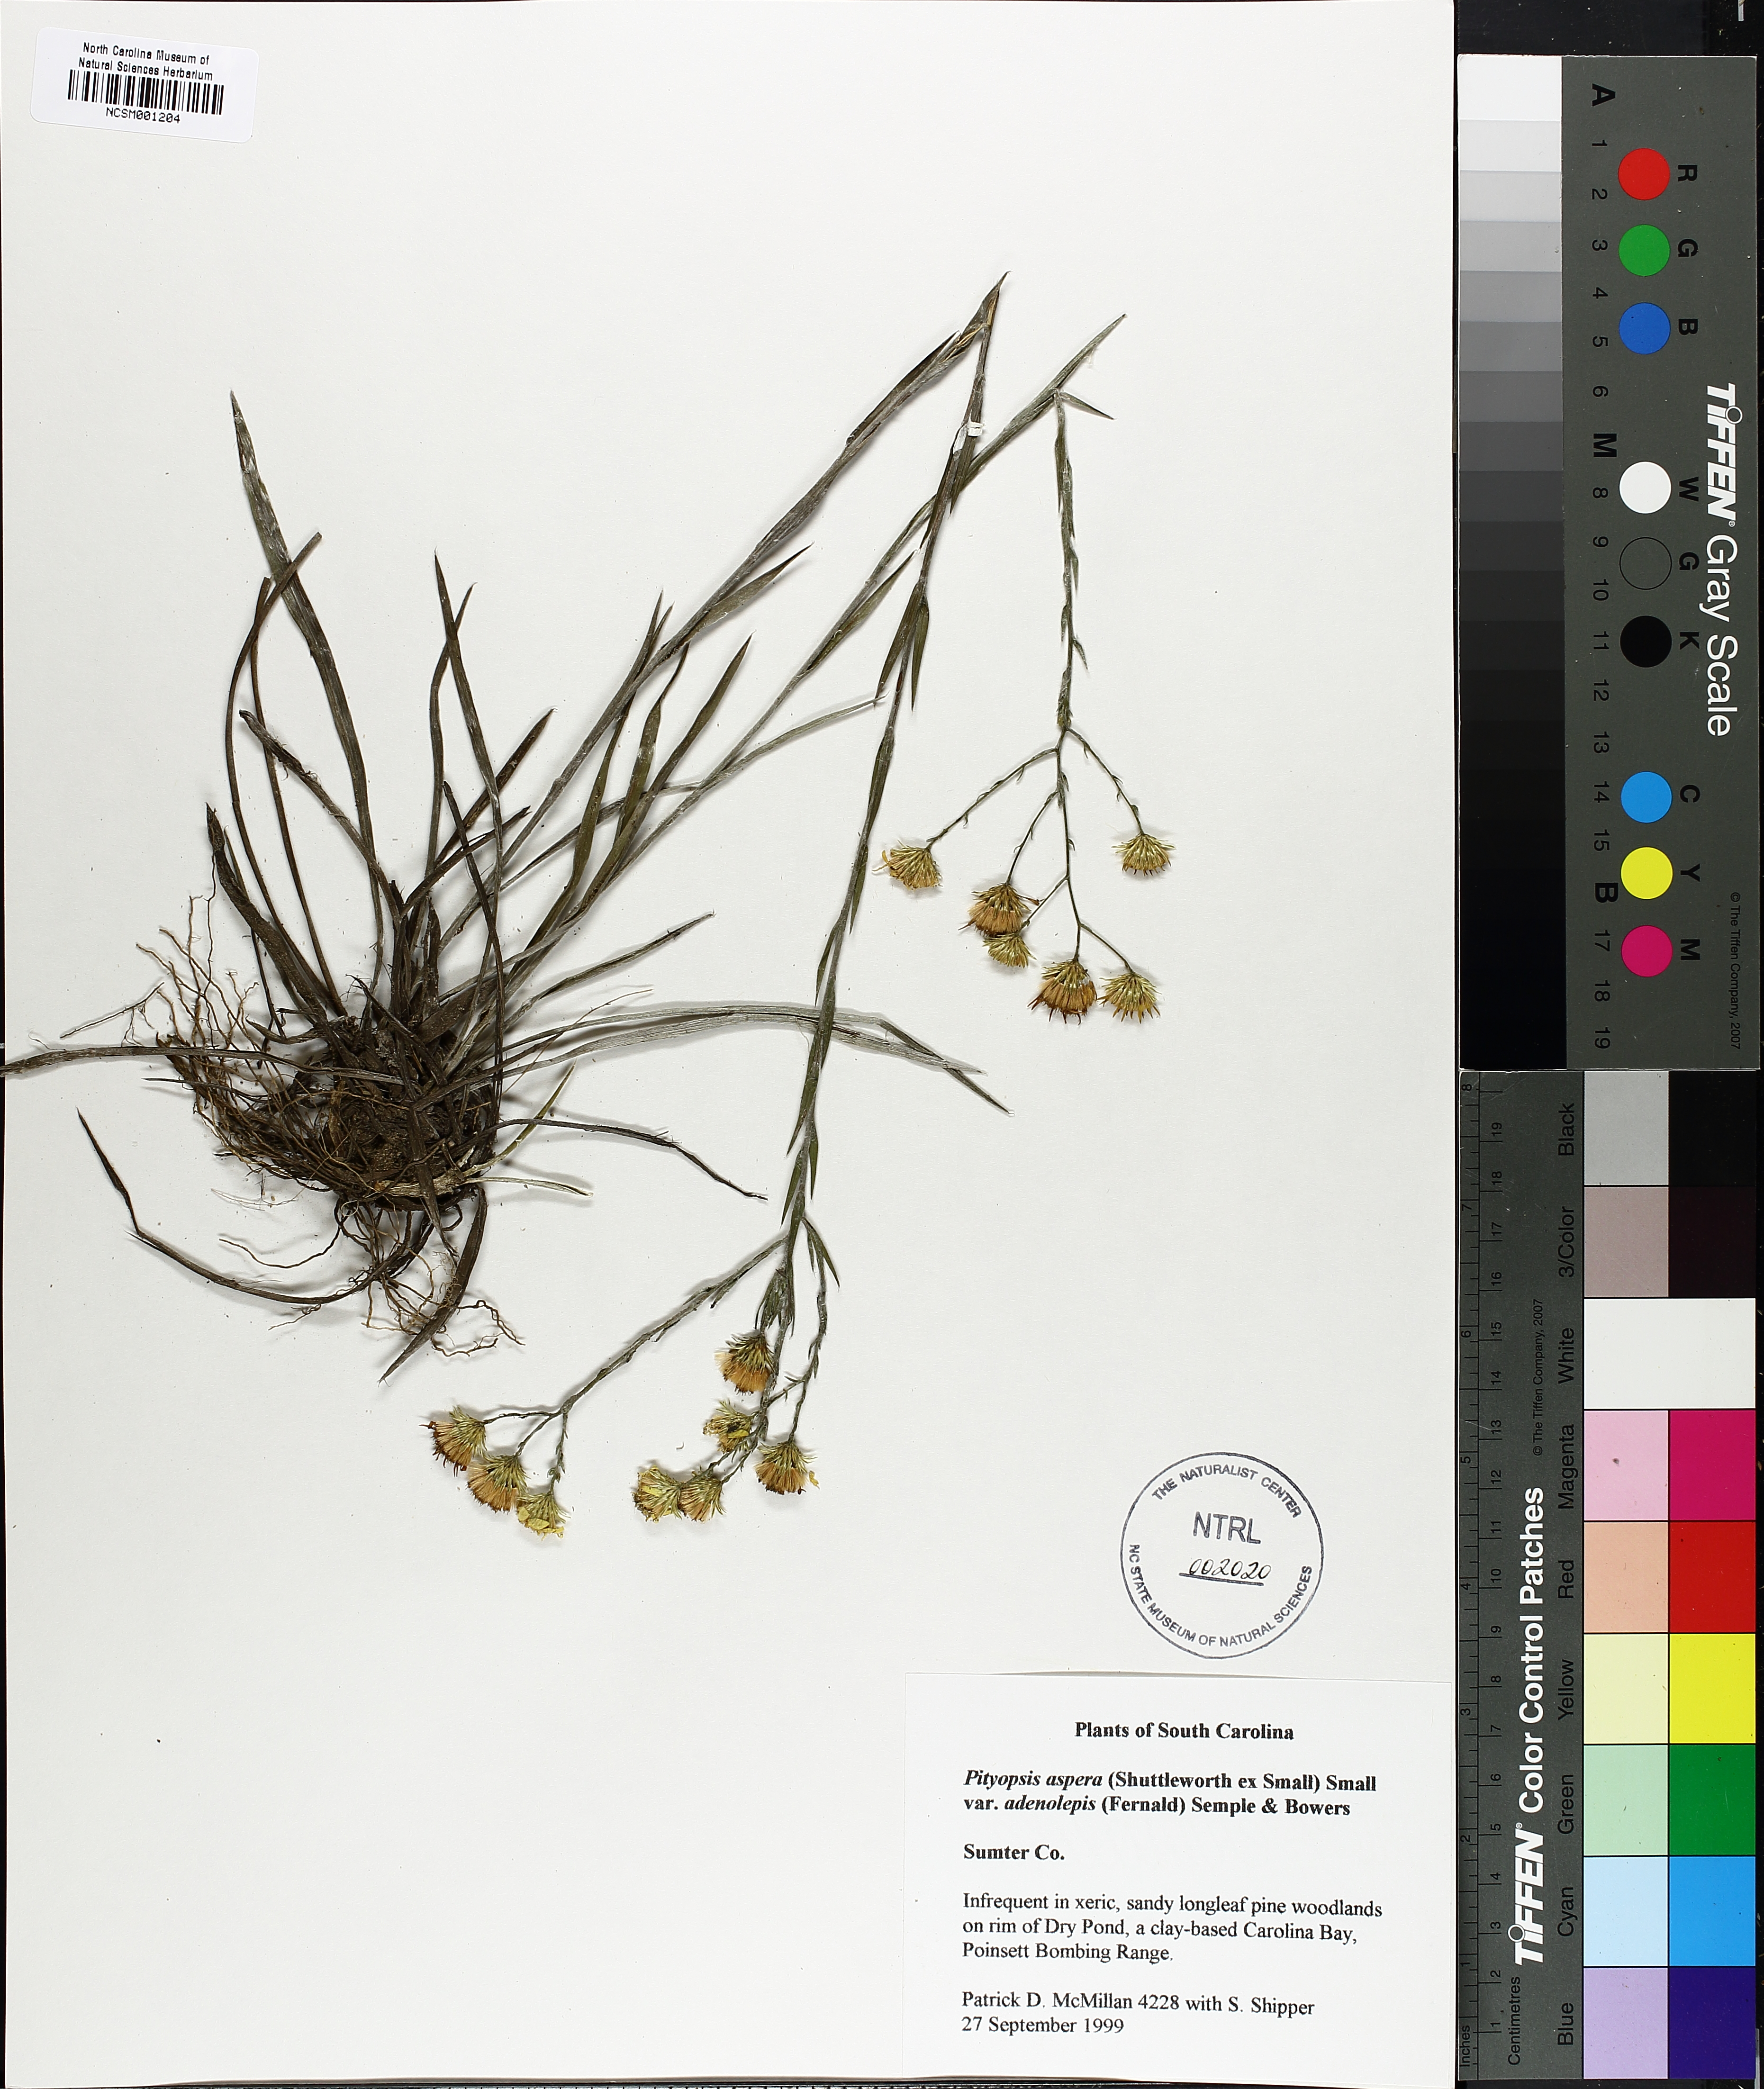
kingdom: Plantae
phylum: Tracheophyta
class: Magnoliopsida
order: Asterales
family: Asteraceae
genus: Pityopsis
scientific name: Pityopsis aspera
